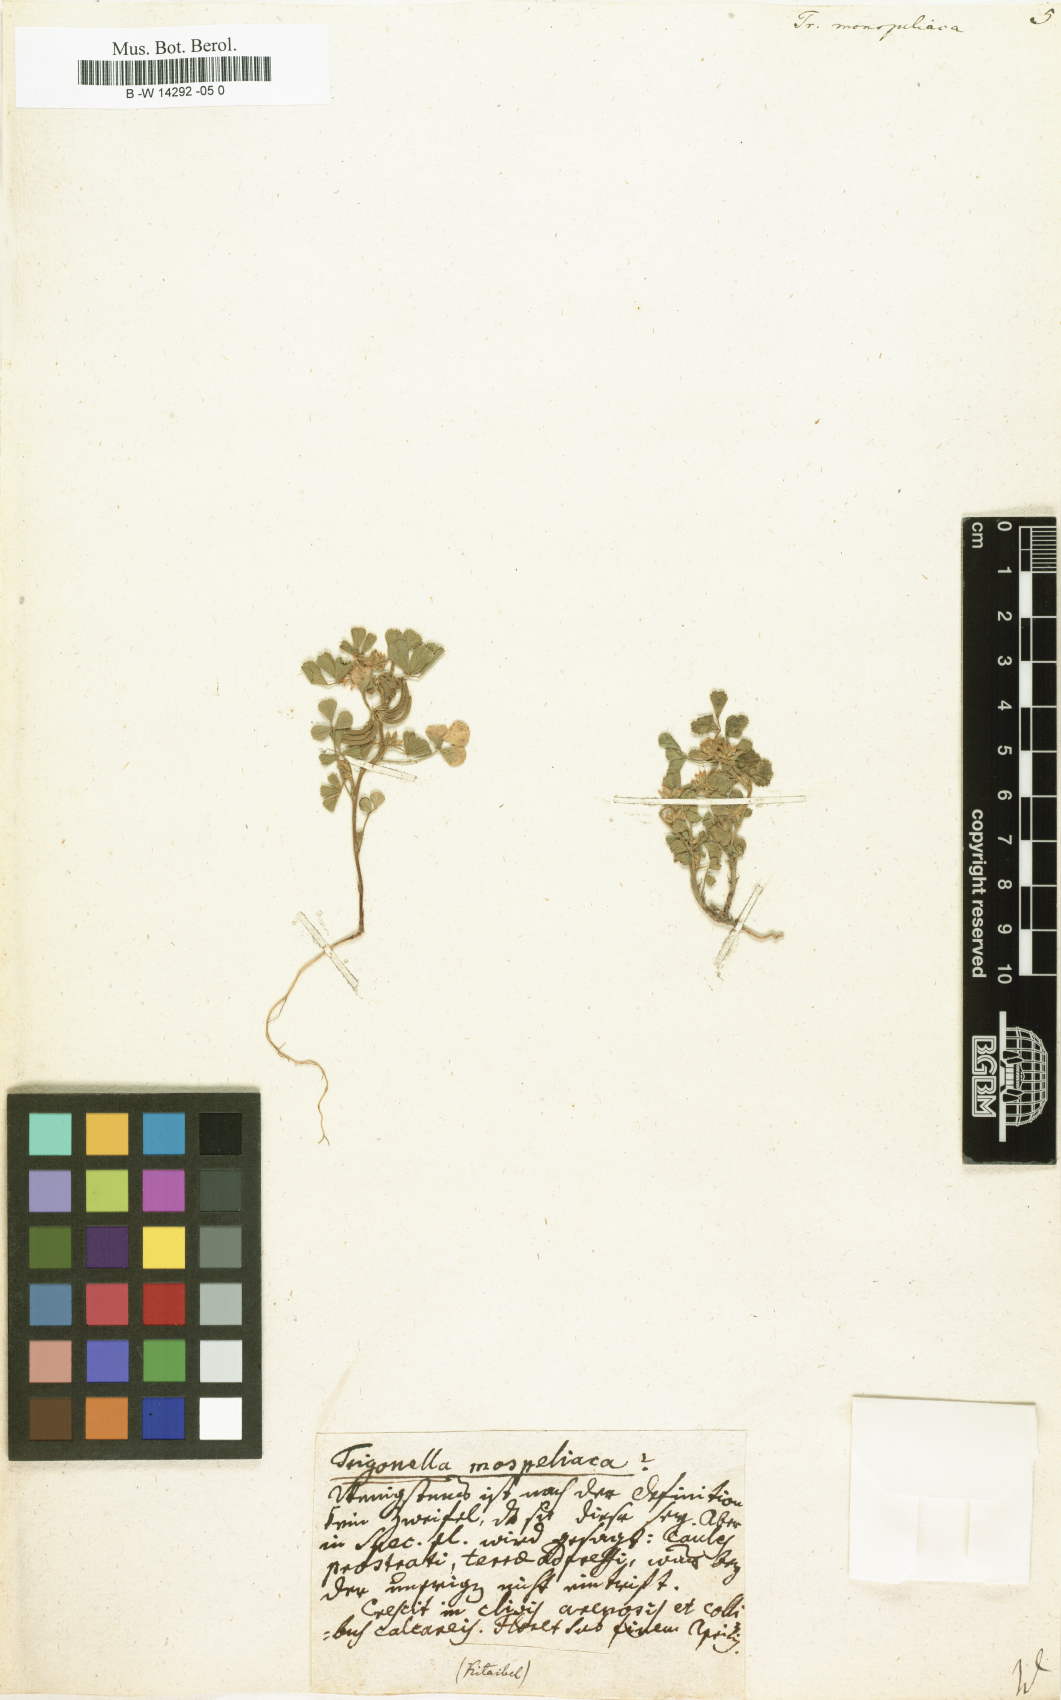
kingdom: Plantae
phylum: Tracheophyta
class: Magnoliopsida
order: Fabales
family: Fabaceae
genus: Medicago
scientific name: Medicago monspeliaca
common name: Hairy medick
